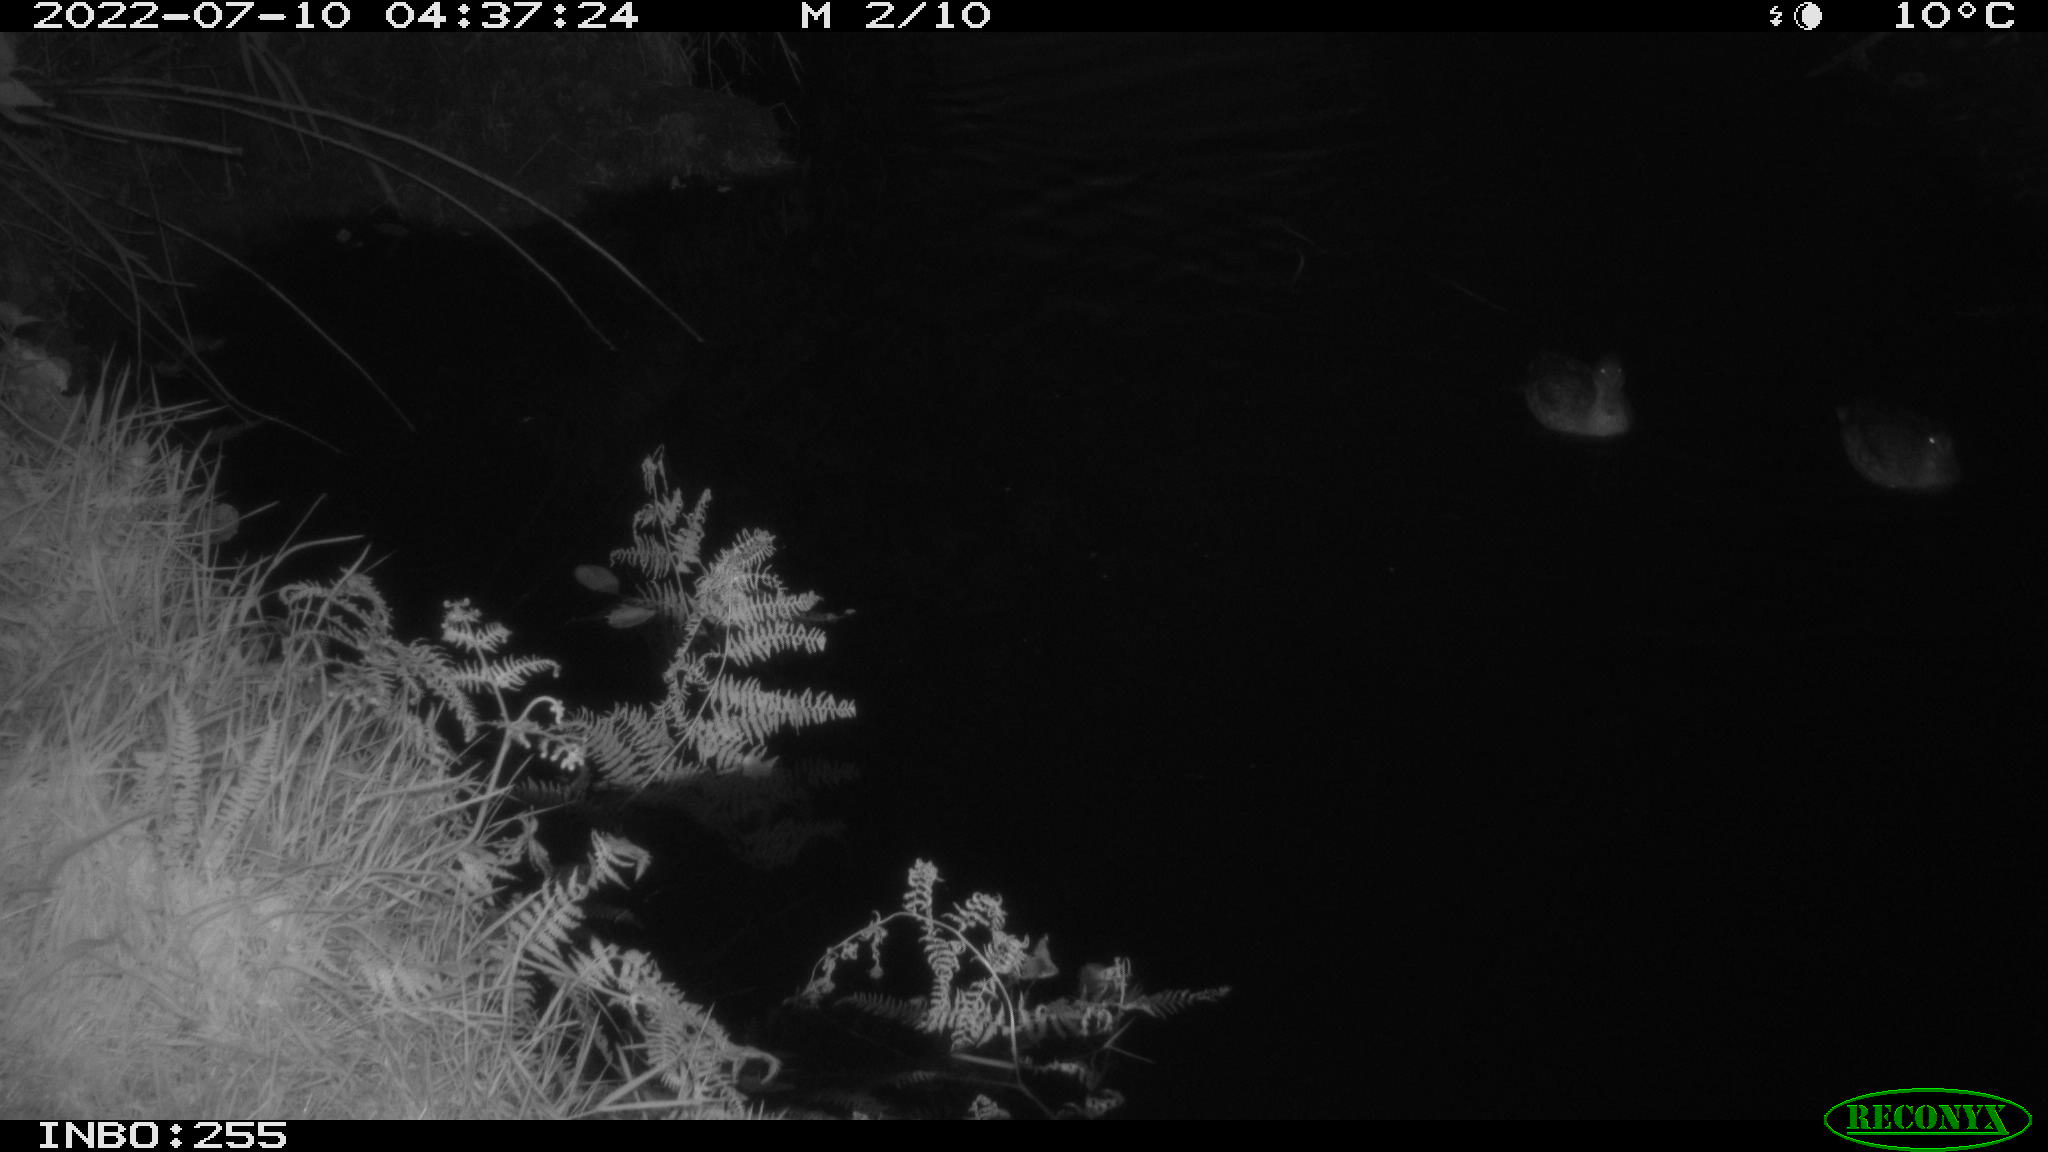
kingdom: Animalia
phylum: Chordata
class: Aves
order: Anseriformes
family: Anatidae
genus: Anas
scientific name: Anas platyrhynchos
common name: Mallard
